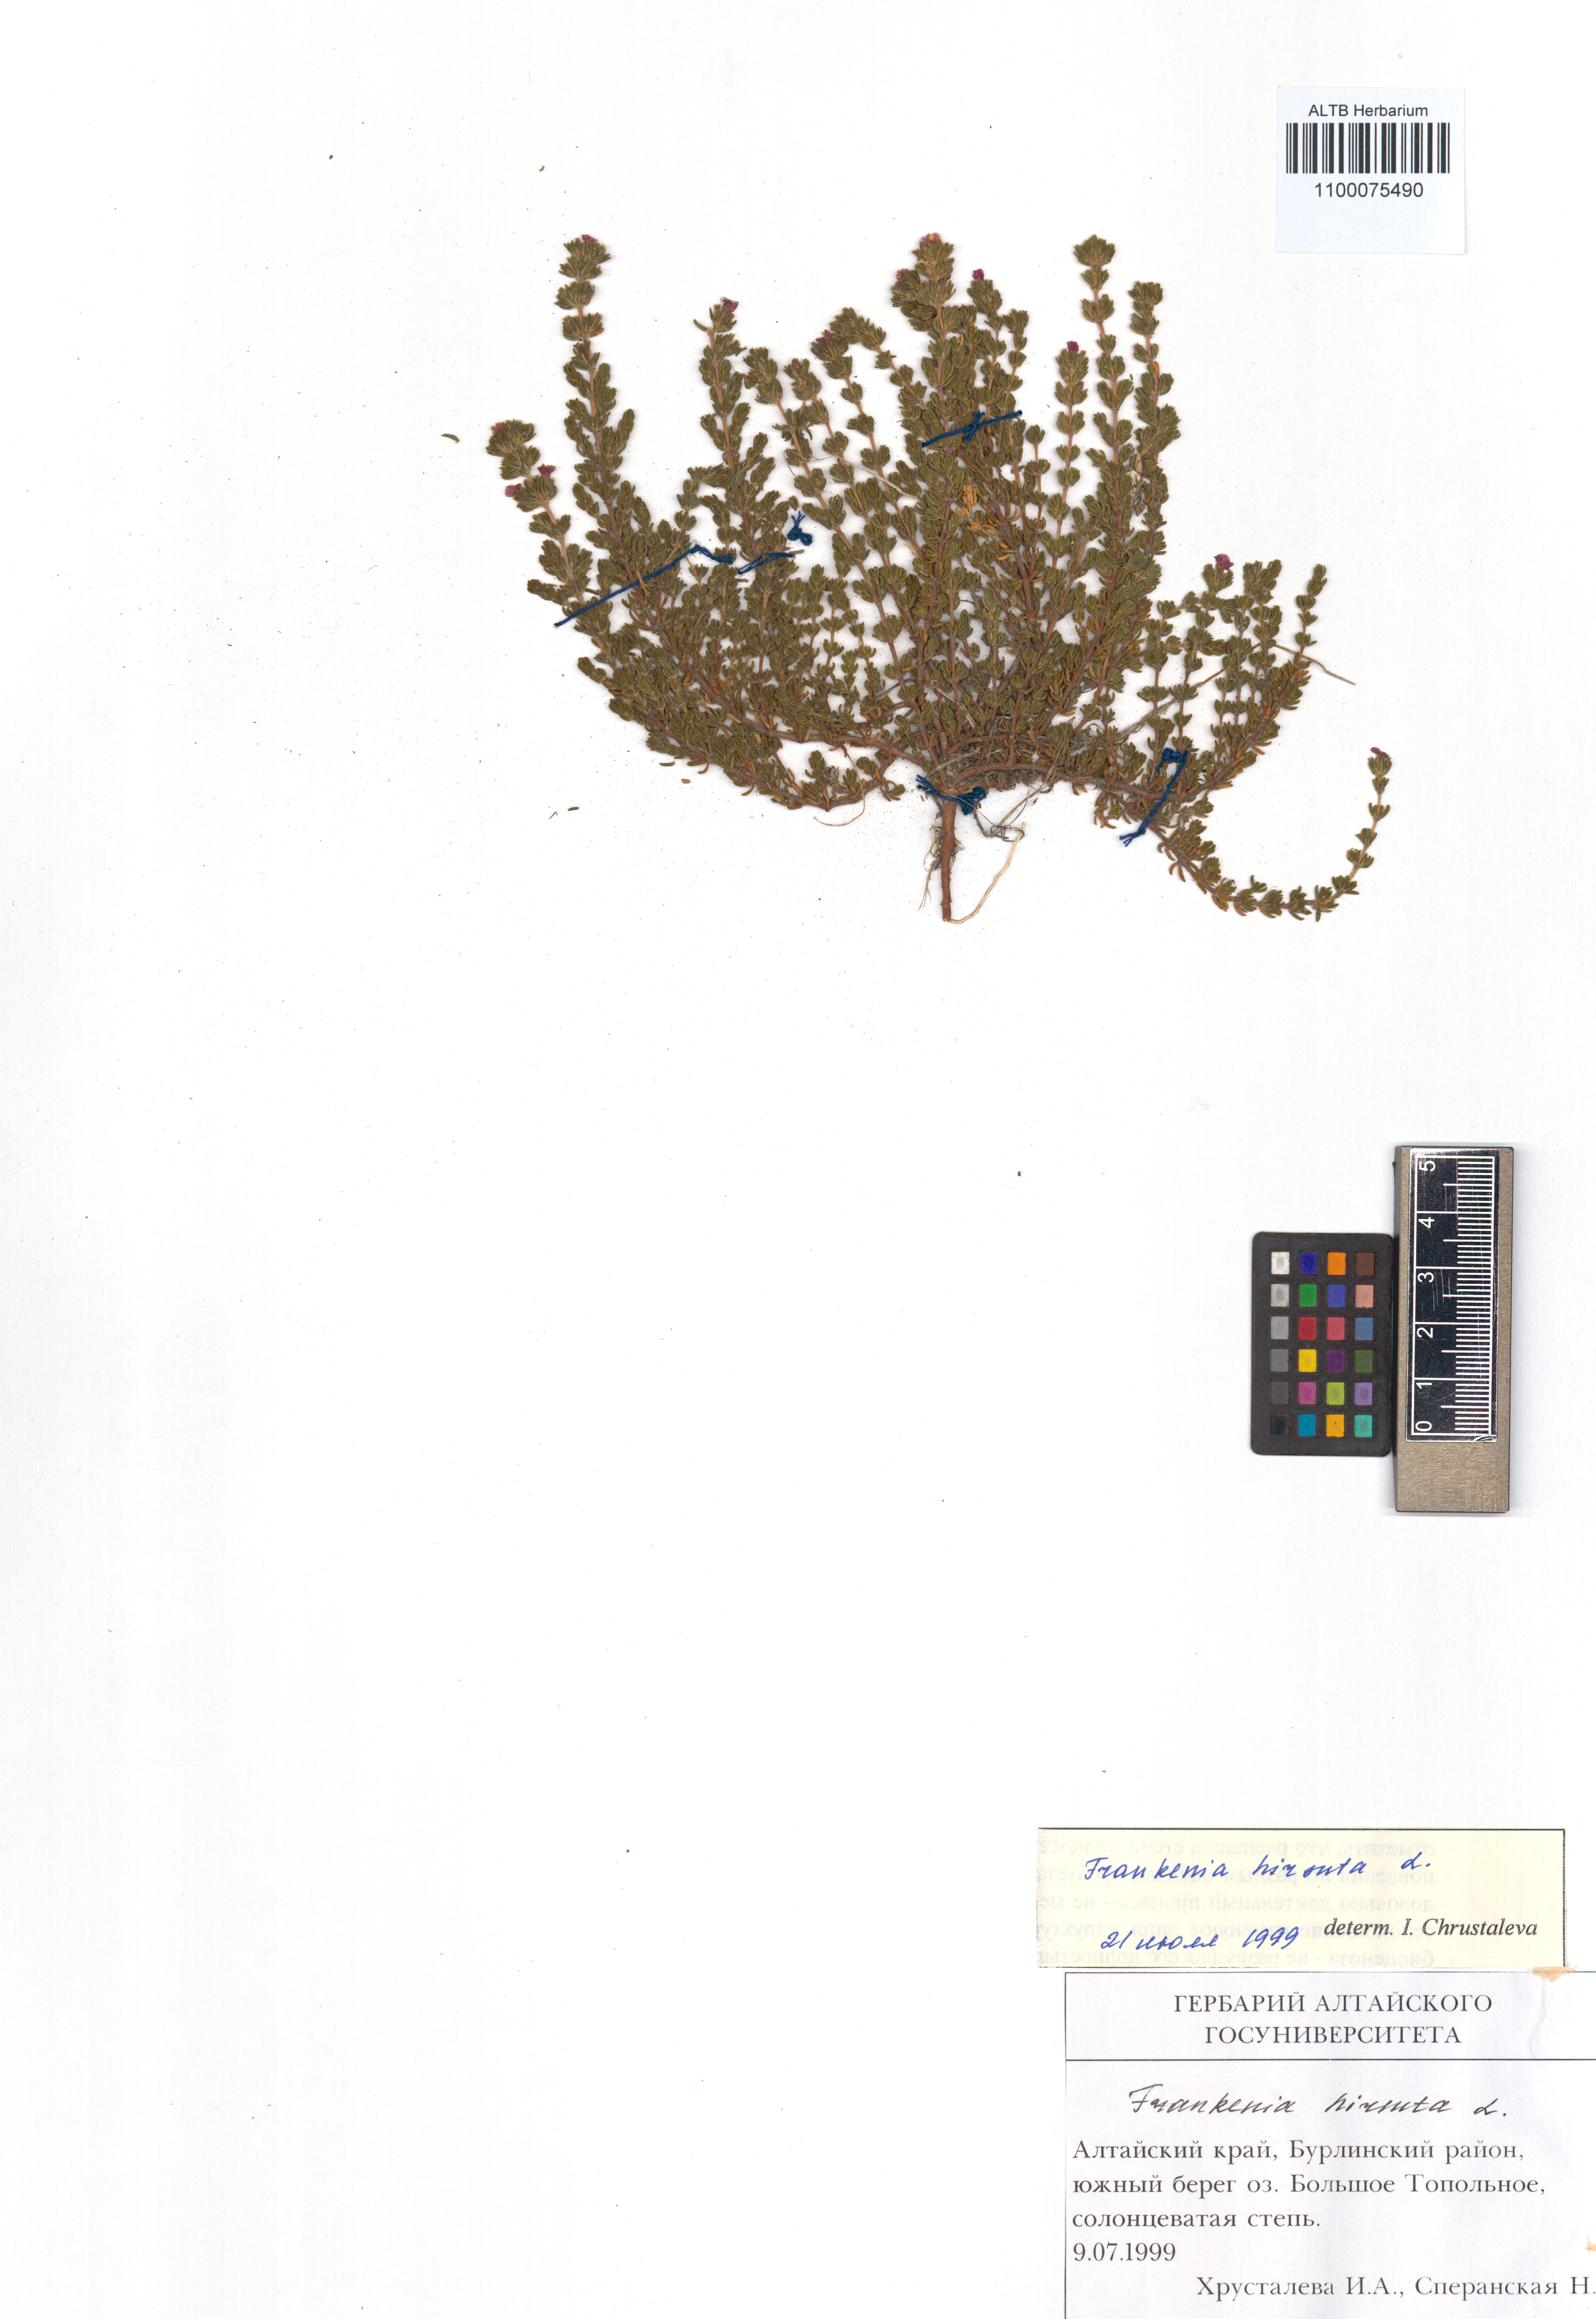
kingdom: Plantae
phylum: Tracheophyta
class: Magnoliopsida
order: Caryophyllales
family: Frankeniaceae
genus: Frankenia
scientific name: Frankenia hirsuta
